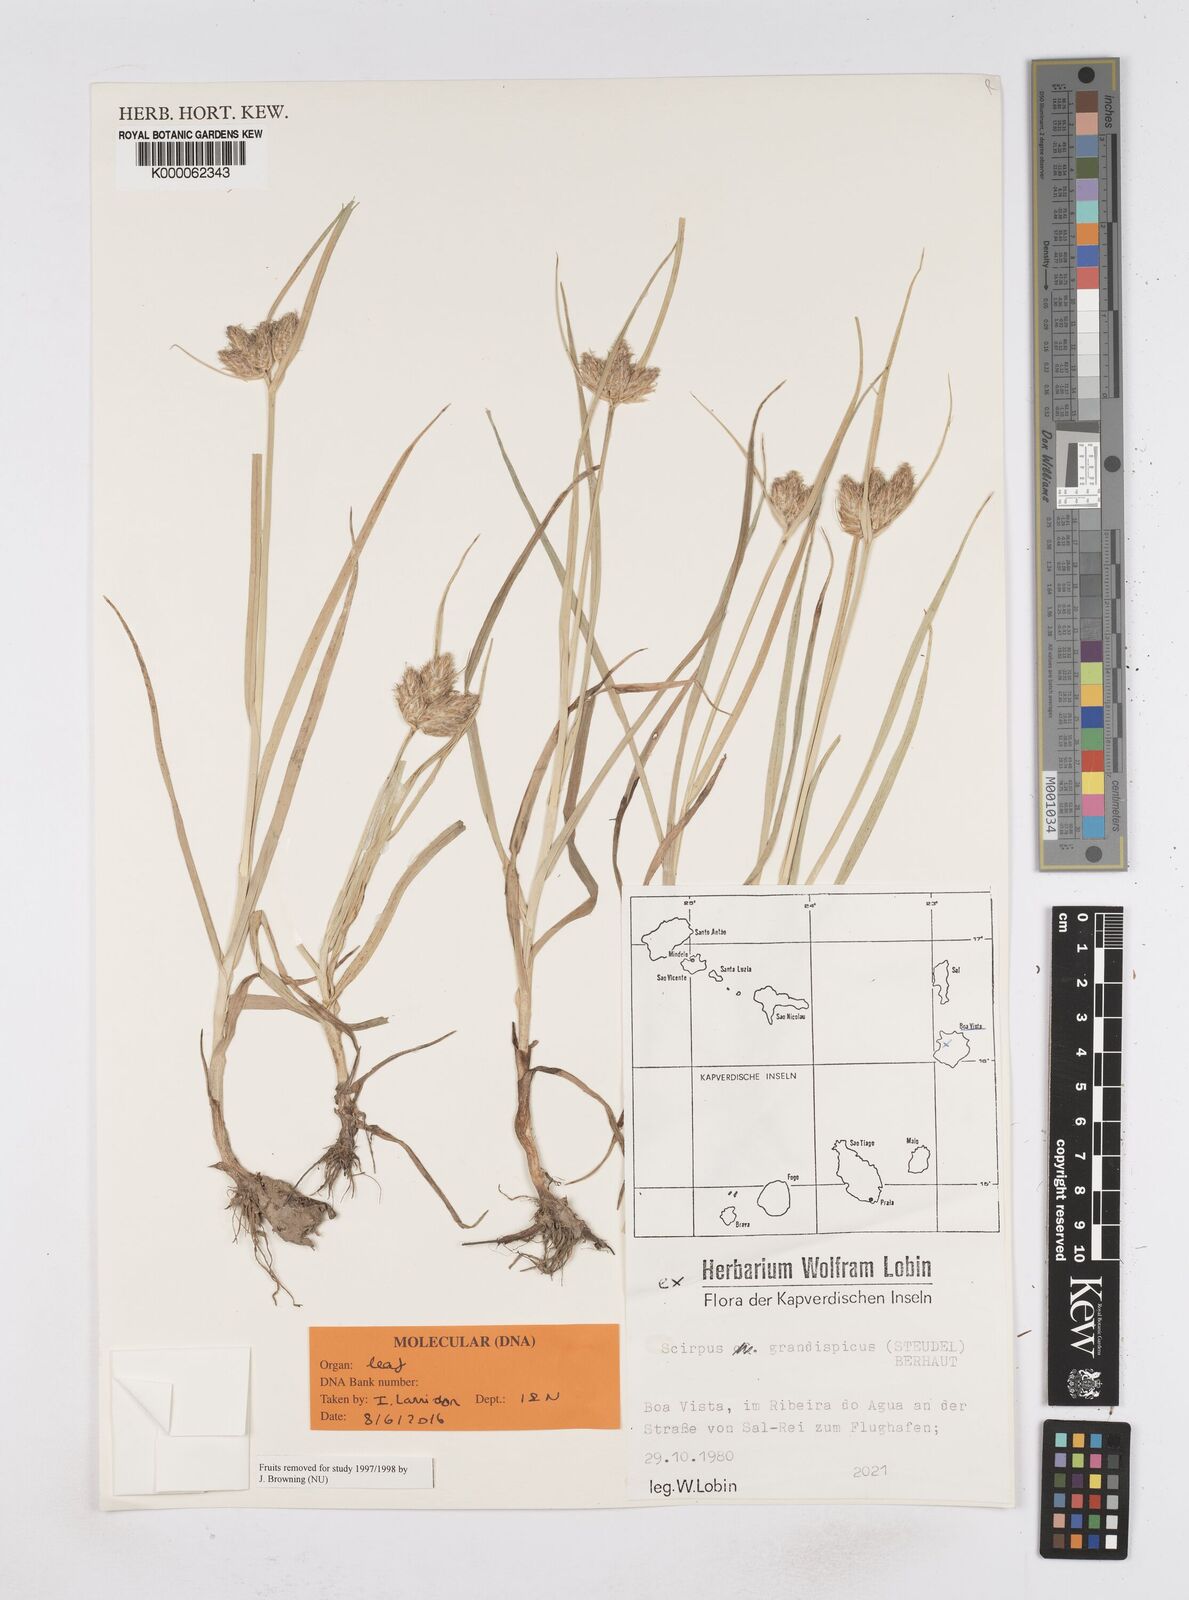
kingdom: Plantae
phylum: Tracheophyta
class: Liliopsida
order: Poales
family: Cyperaceae
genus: Bolboschoenus
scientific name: Bolboschoenus grandispicus
